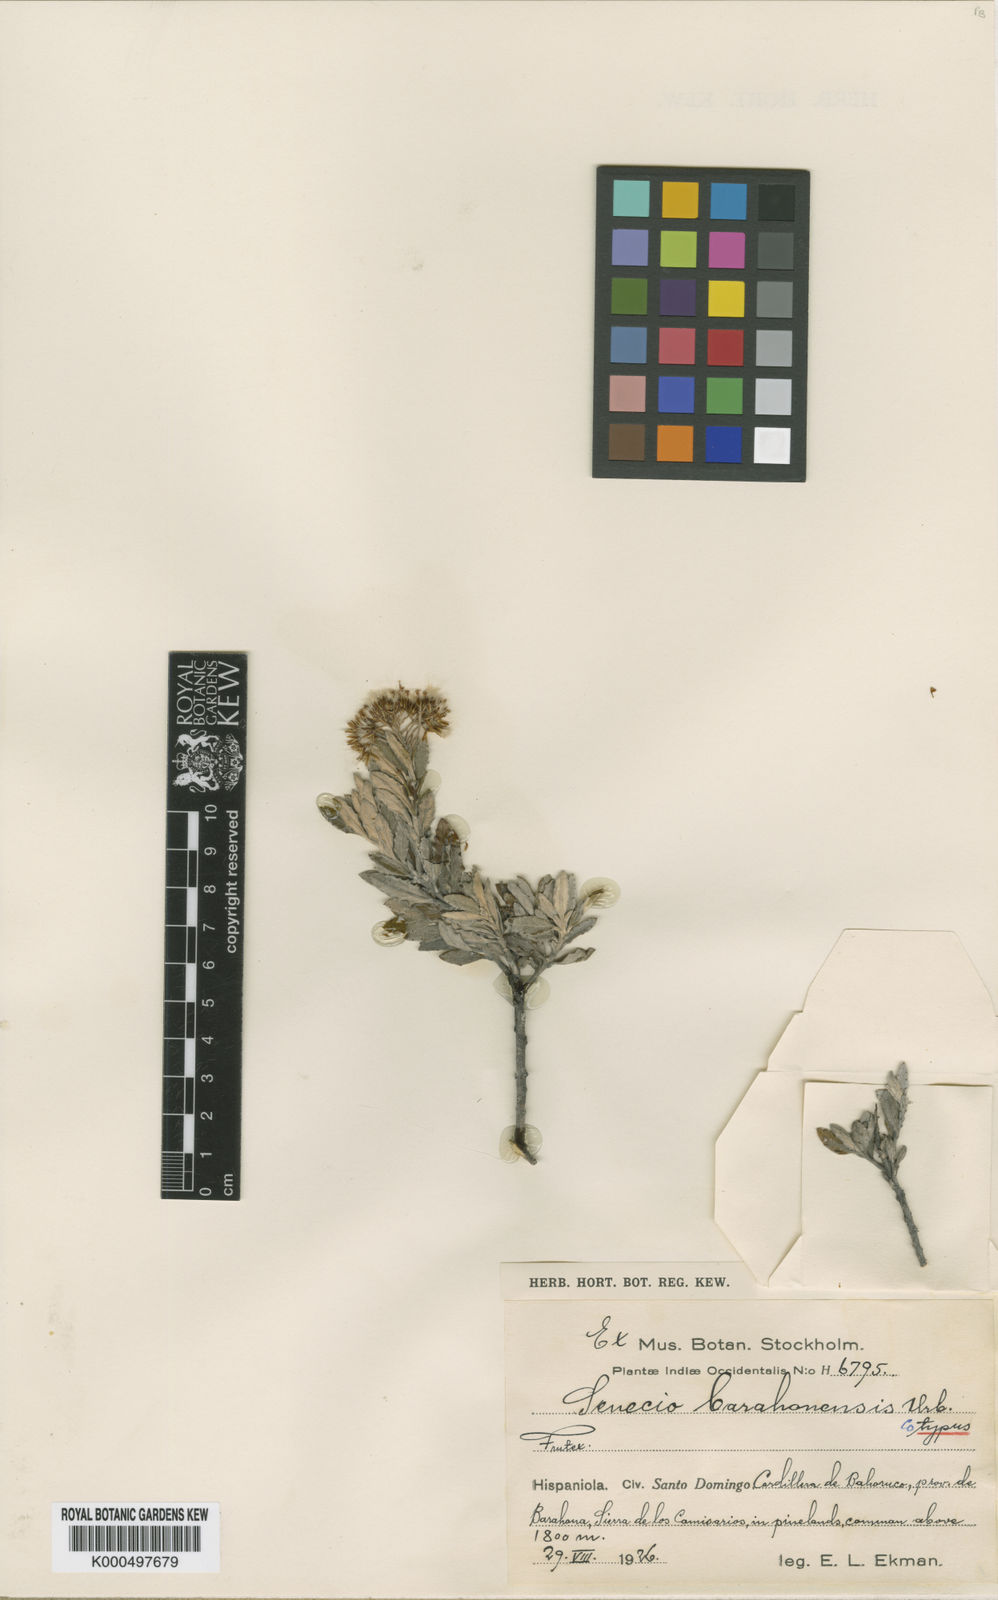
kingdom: Plantae
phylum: Tracheophyta
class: Magnoliopsida
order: Asterales
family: Asteraceae
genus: Elekmania
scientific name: Elekmania barahonensis
